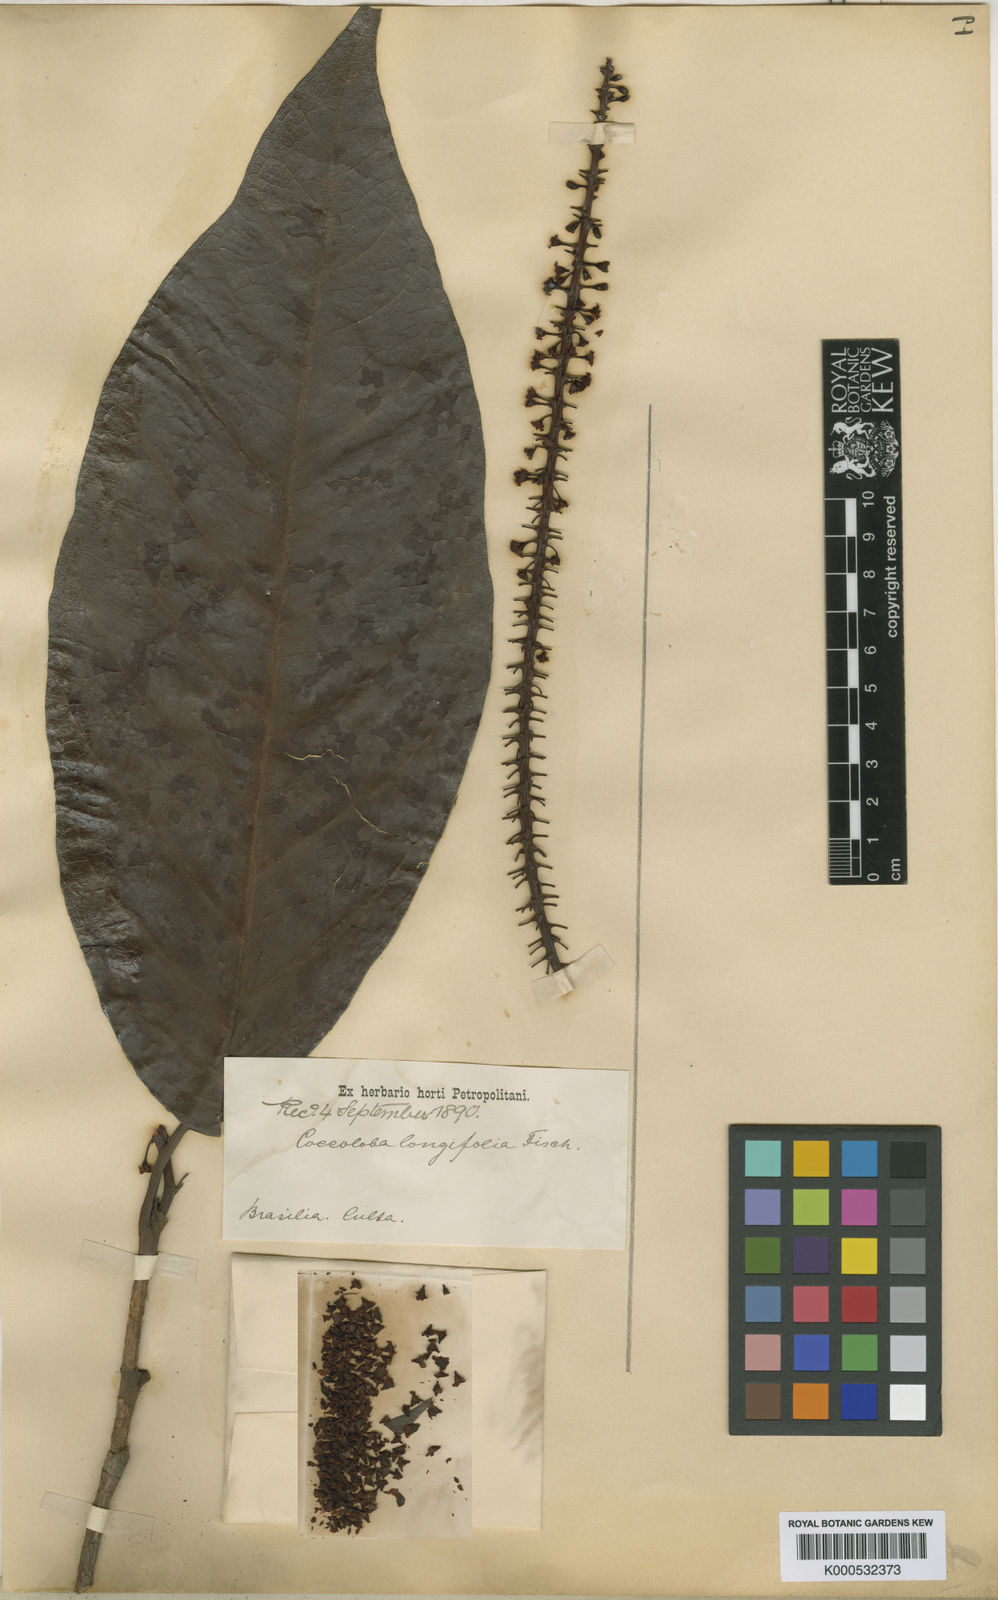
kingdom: Plantae
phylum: Tracheophyta
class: Magnoliopsida
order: Caryophyllales
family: Polygonaceae
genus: Coccoloba
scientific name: Coccoloba
